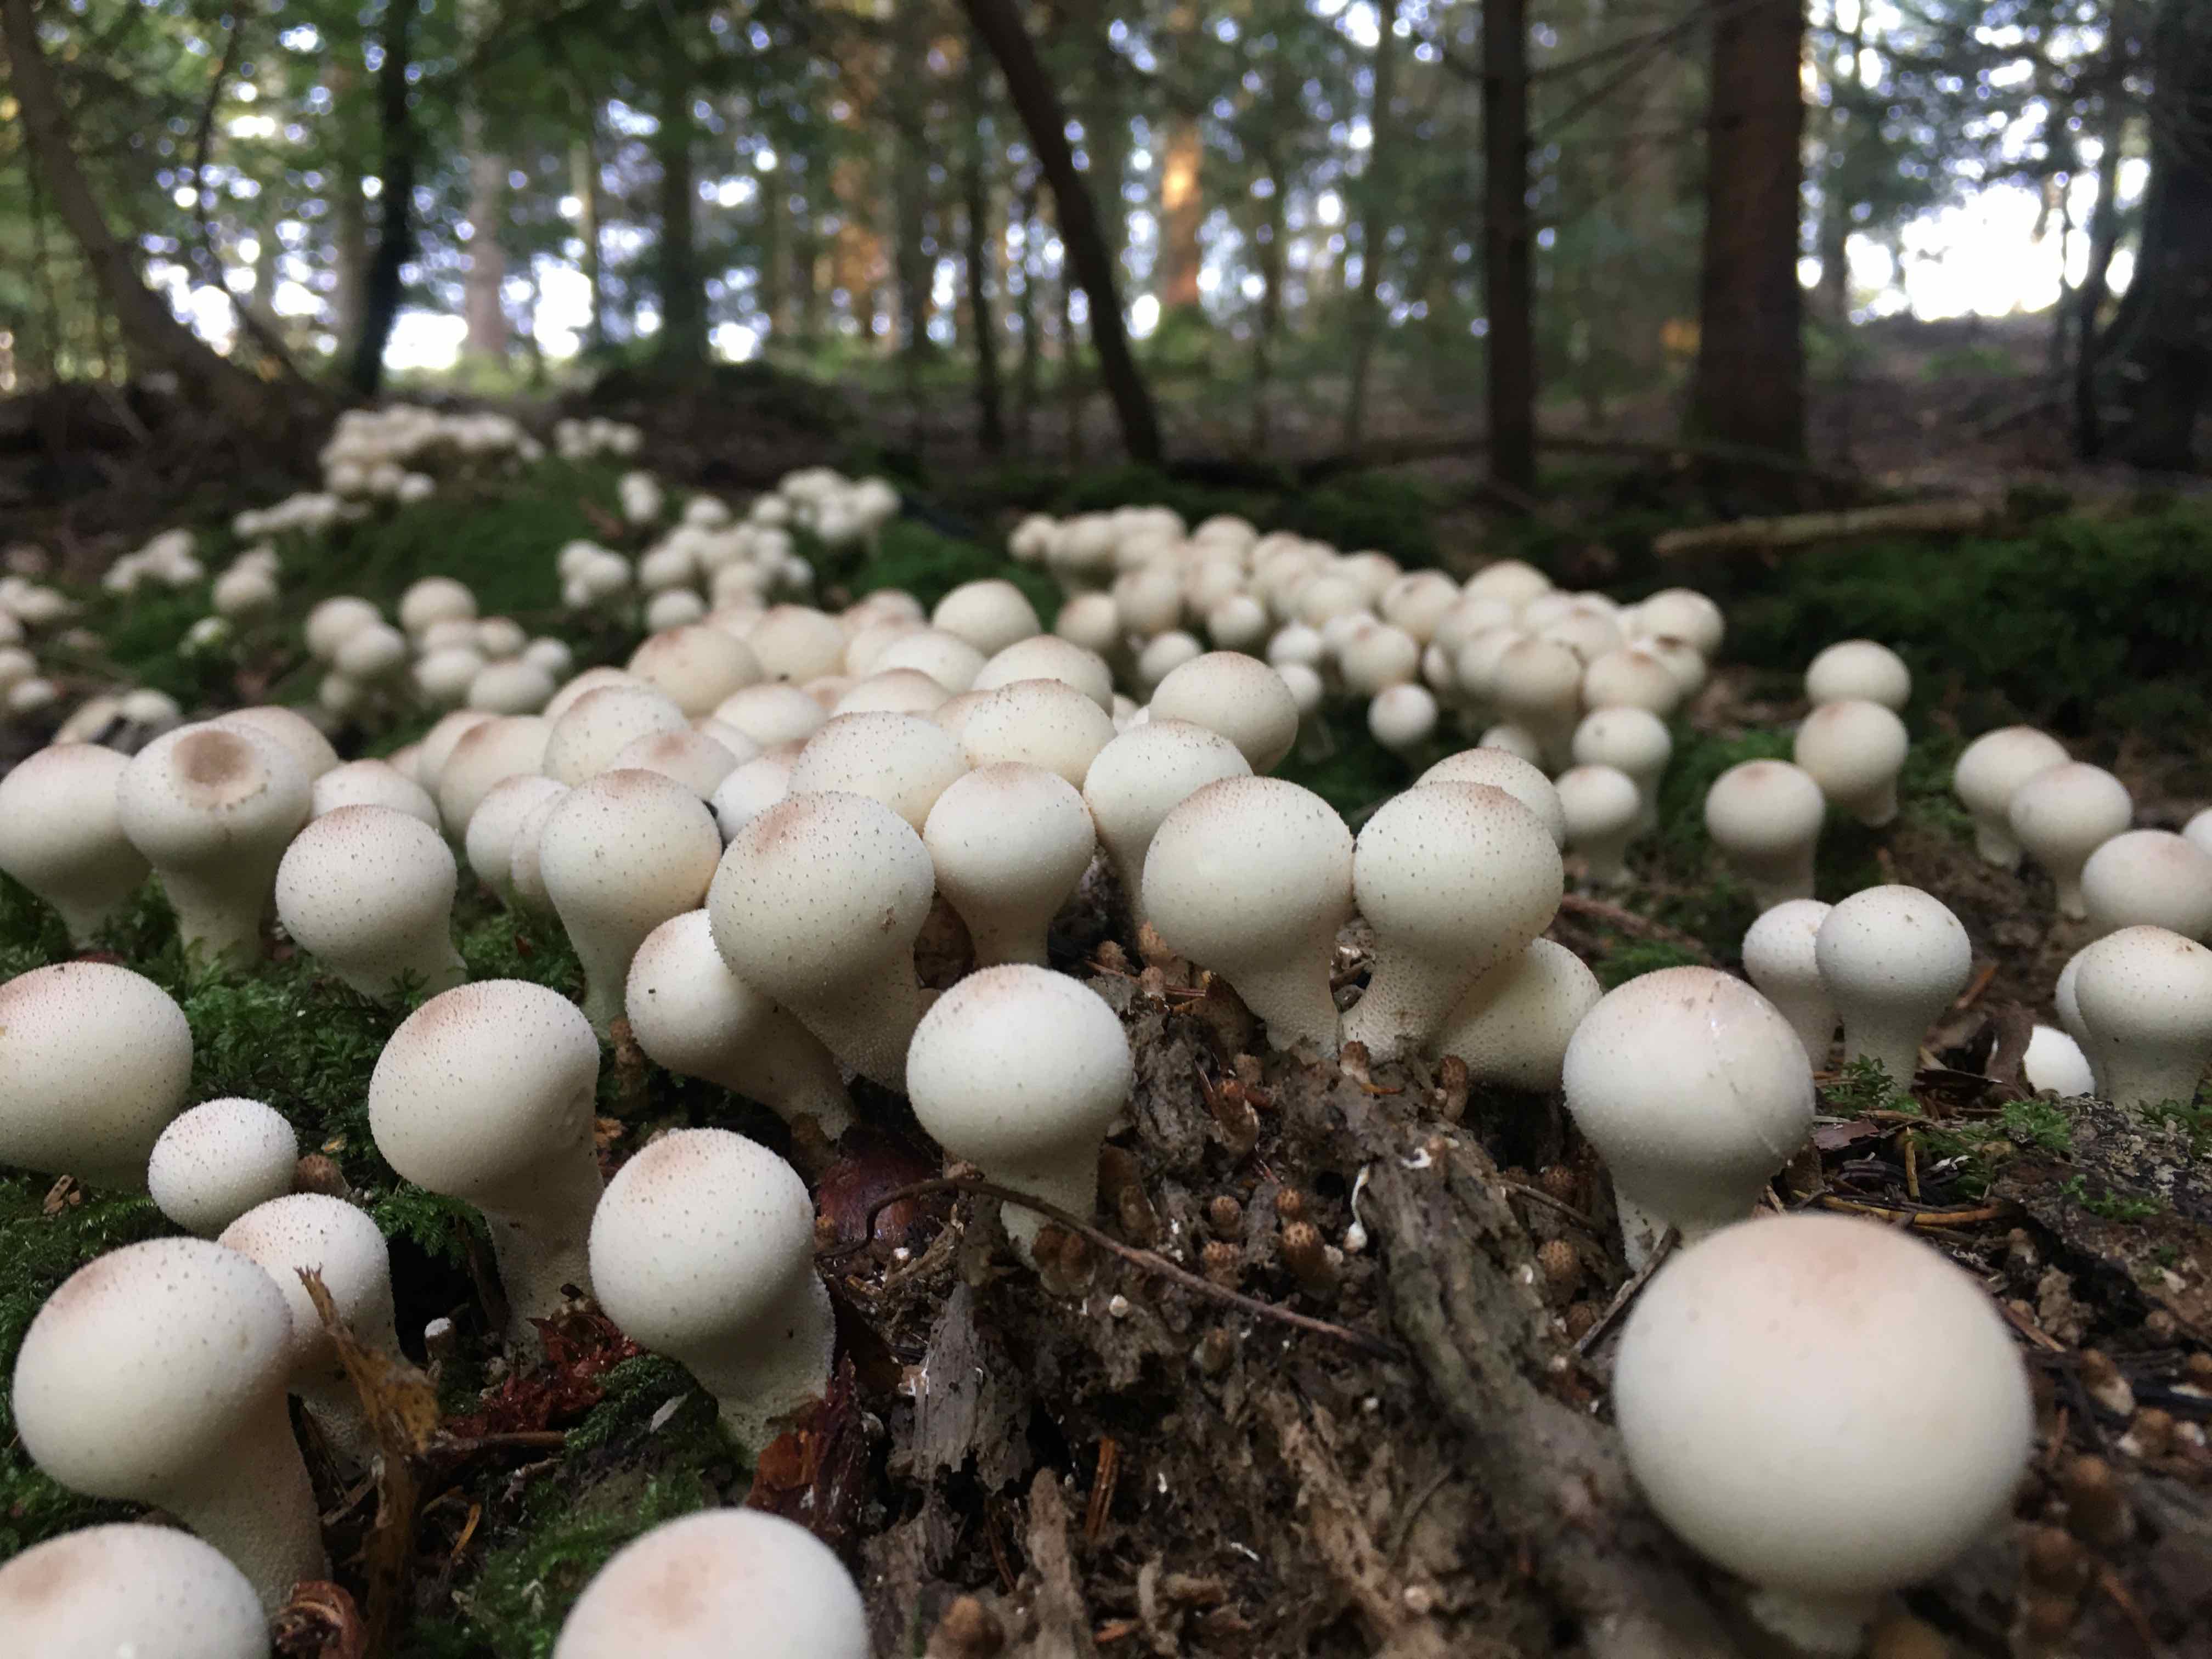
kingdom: Fungi
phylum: Basidiomycota
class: Agaricomycetes
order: Agaricales
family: Lycoperdaceae
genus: Apioperdon
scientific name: Apioperdon pyriforme
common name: pære-støvbold
